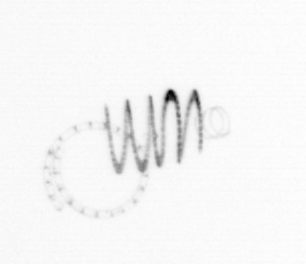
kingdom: Chromista
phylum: Ochrophyta
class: Bacillariophyceae
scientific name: Bacillariophyceae
